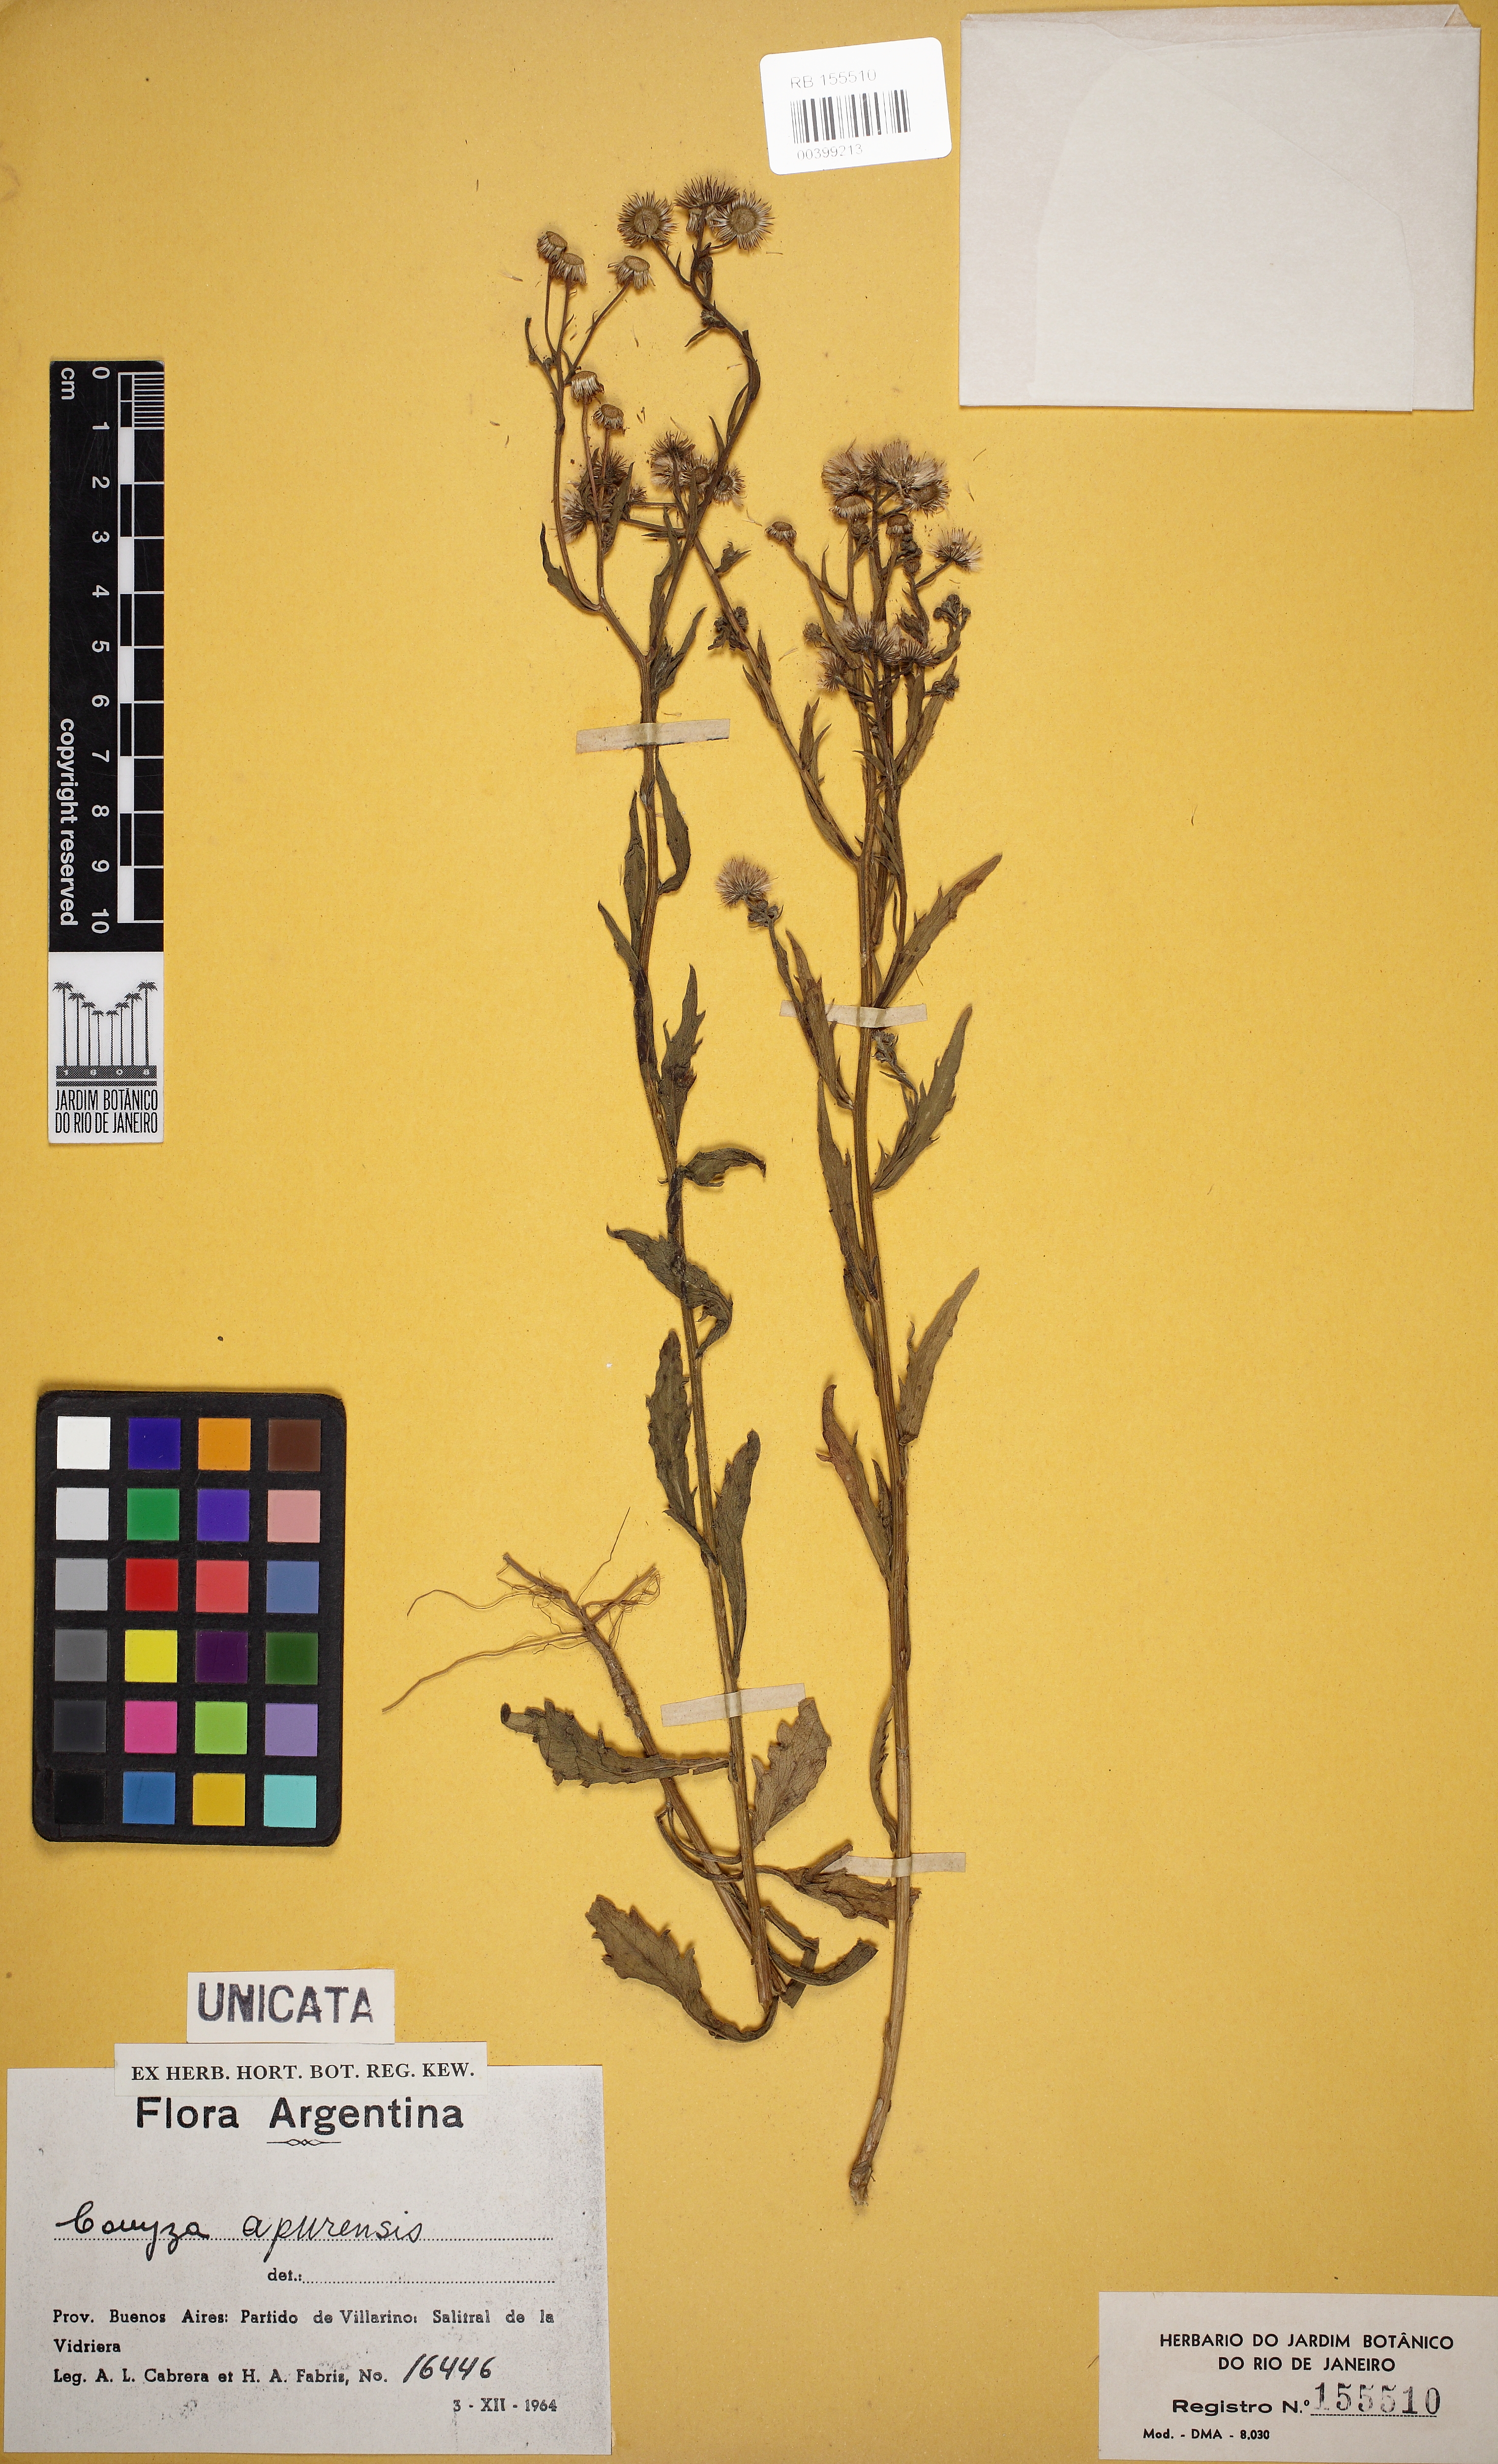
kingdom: Plantae
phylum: Tracheophyta
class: Magnoliopsida
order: Asterales
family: Asteraceae
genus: Erigeron
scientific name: Erigeron laevigatus
